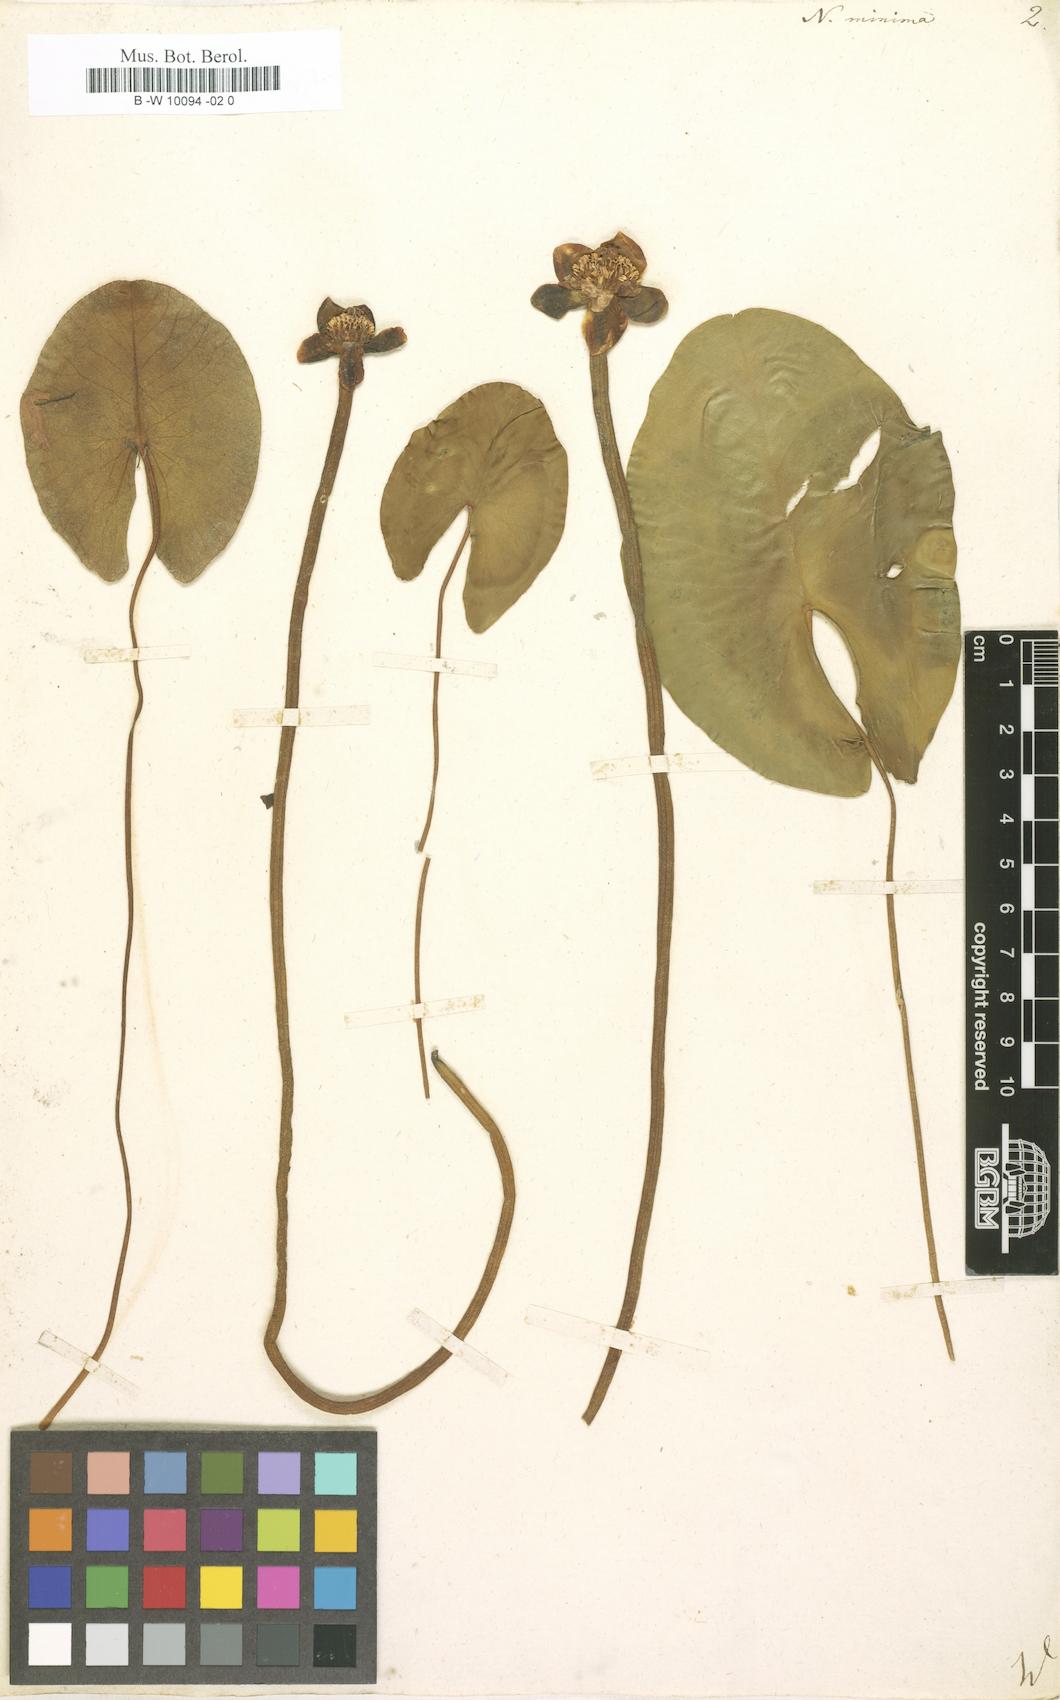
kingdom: Plantae
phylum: Tracheophyta
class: Magnoliopsida
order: Nymphaeales
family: Nymphaeaceae
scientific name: Nymphaeaceae
